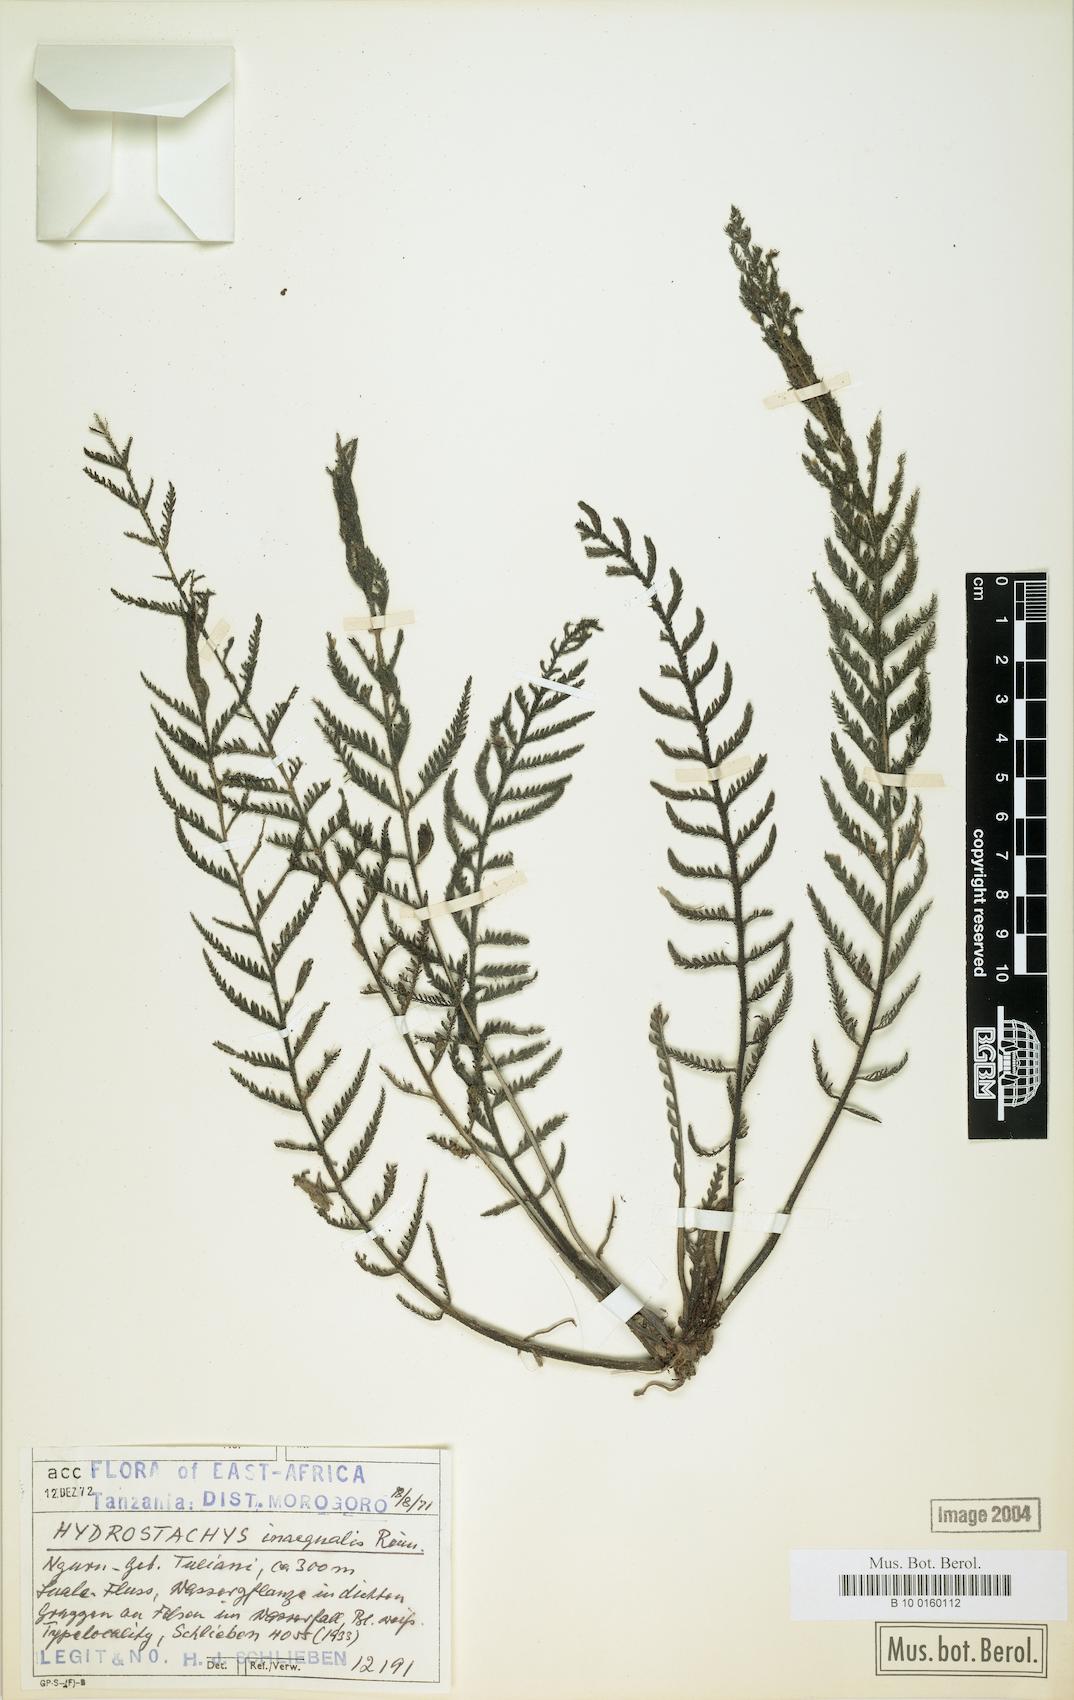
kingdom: Plantae
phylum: Tracheophyta
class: Magnoliopsida
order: Cornales
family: Hydrostachyaceae
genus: Hydrostachys
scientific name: Hydrostachys angustisecta
